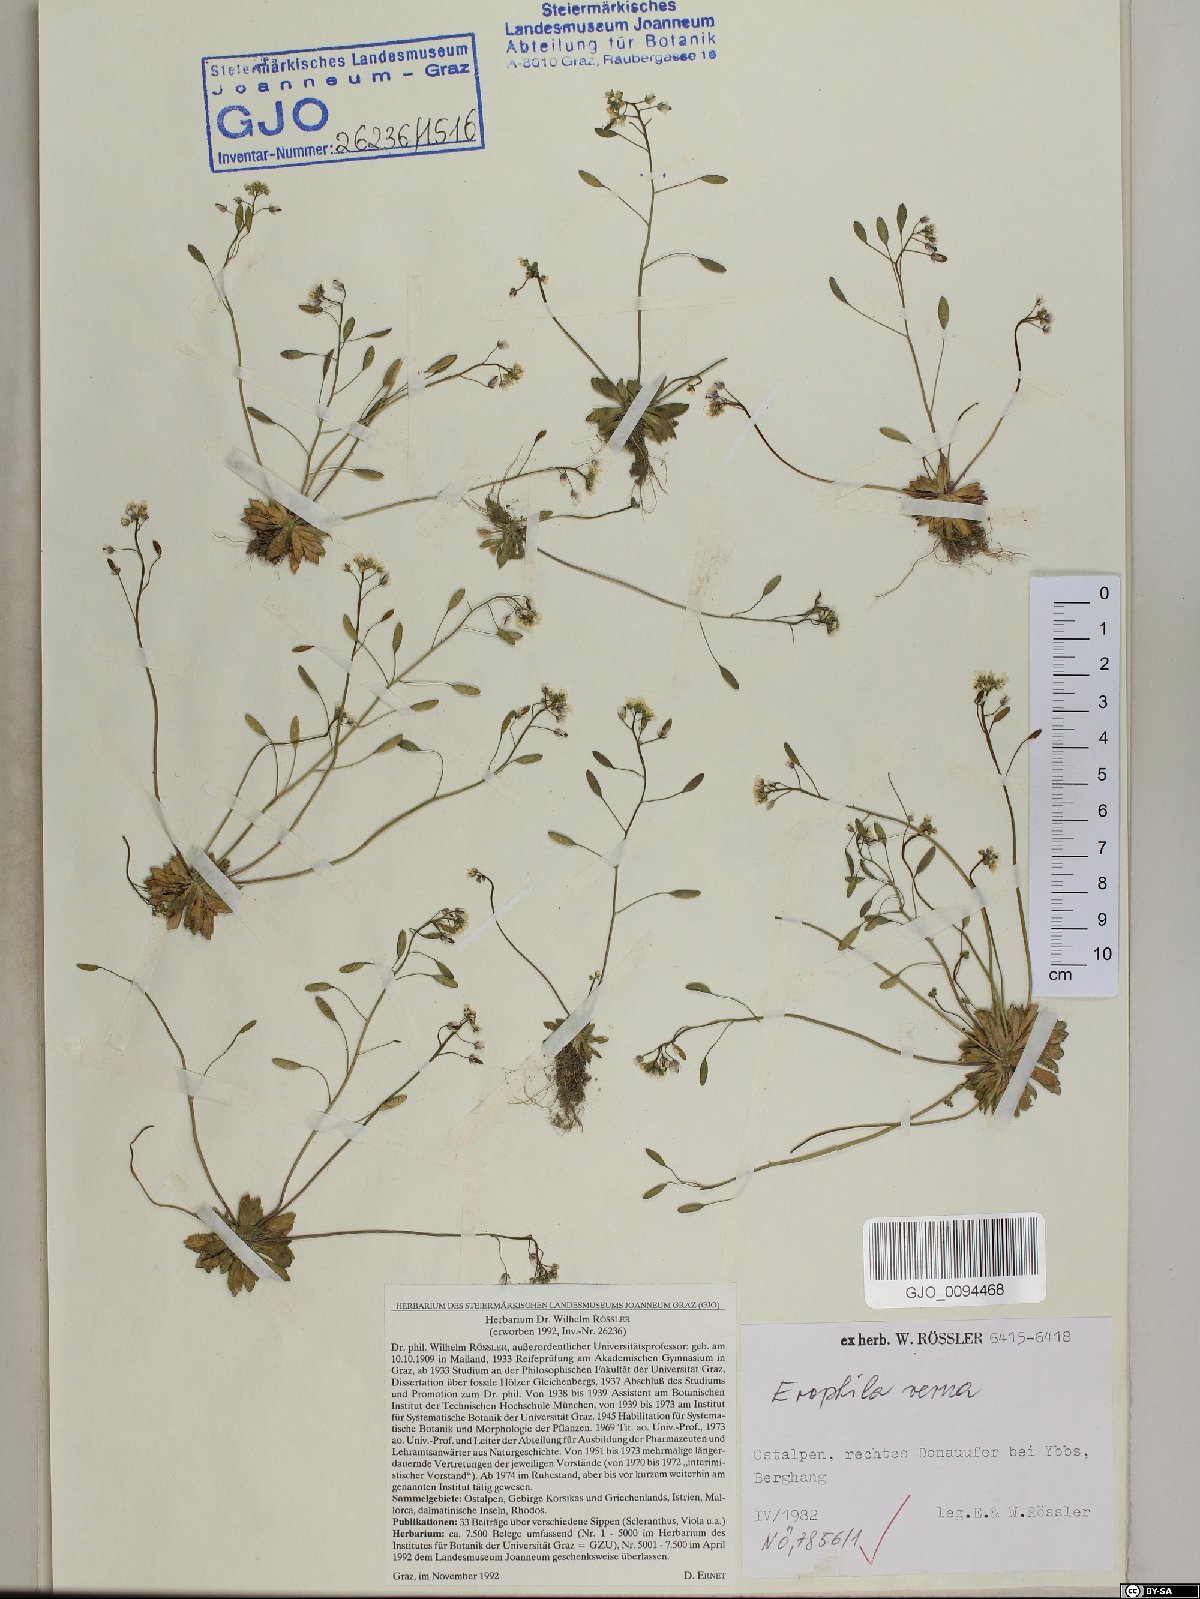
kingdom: Plantae
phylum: Tracheophyta
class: Magnoliopsida
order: Brassicales
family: Brassicaceae
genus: Draba
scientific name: Draba verna
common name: Spring draba
